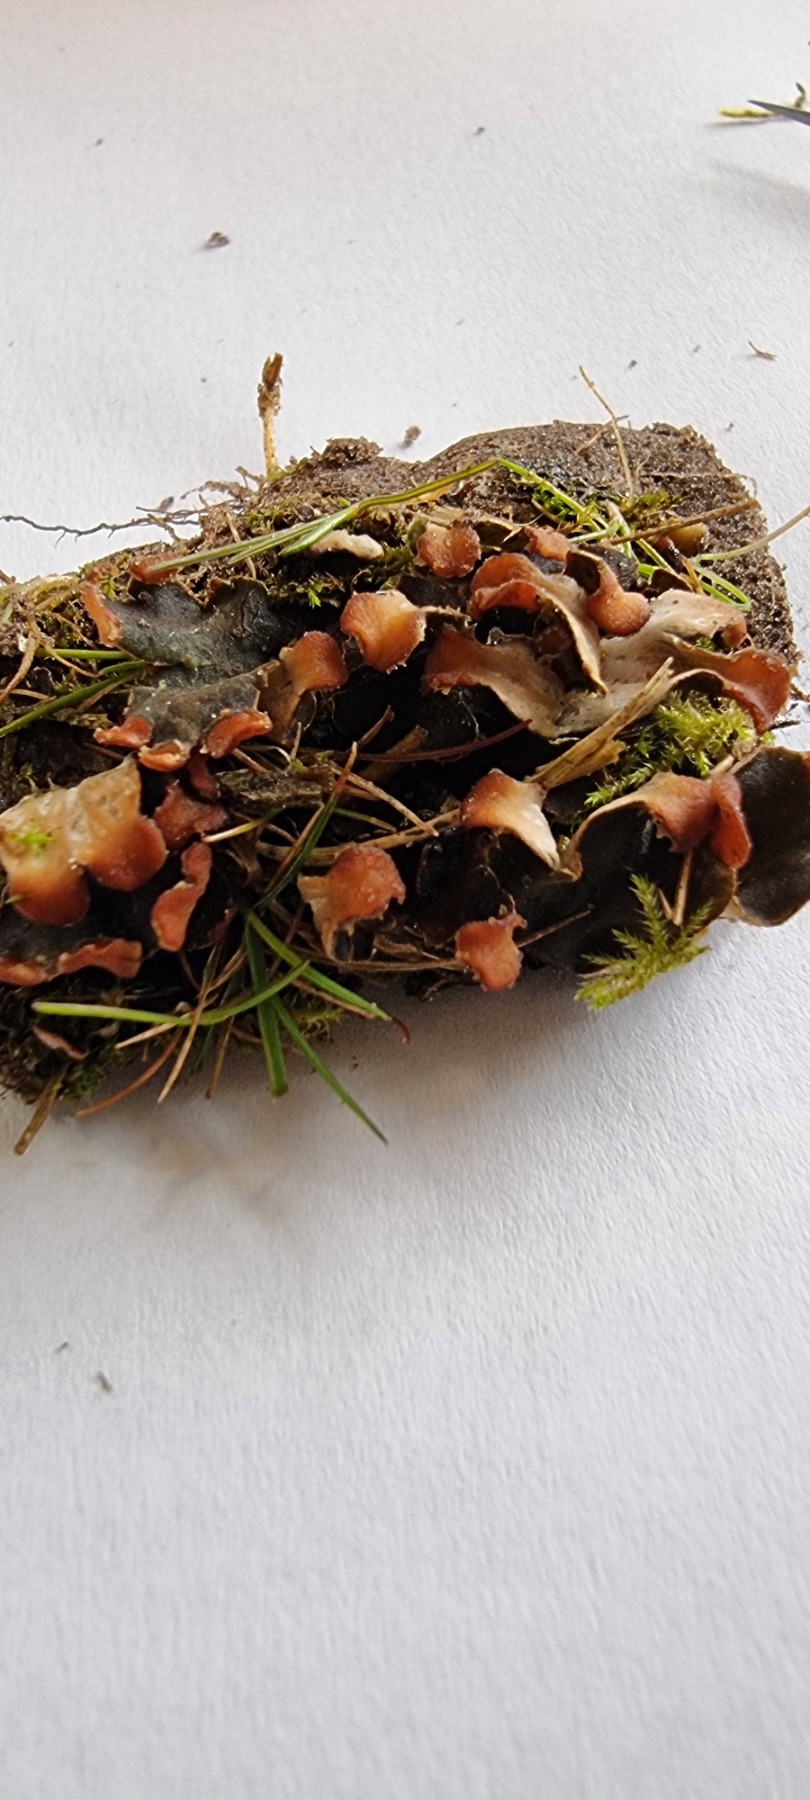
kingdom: Fungi
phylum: Ascomycota
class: Lecanoromycetes
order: Peltigerales
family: Peltigeraceae
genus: Peltigera
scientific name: Peltigera didactyla
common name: Liden skjoldlav
